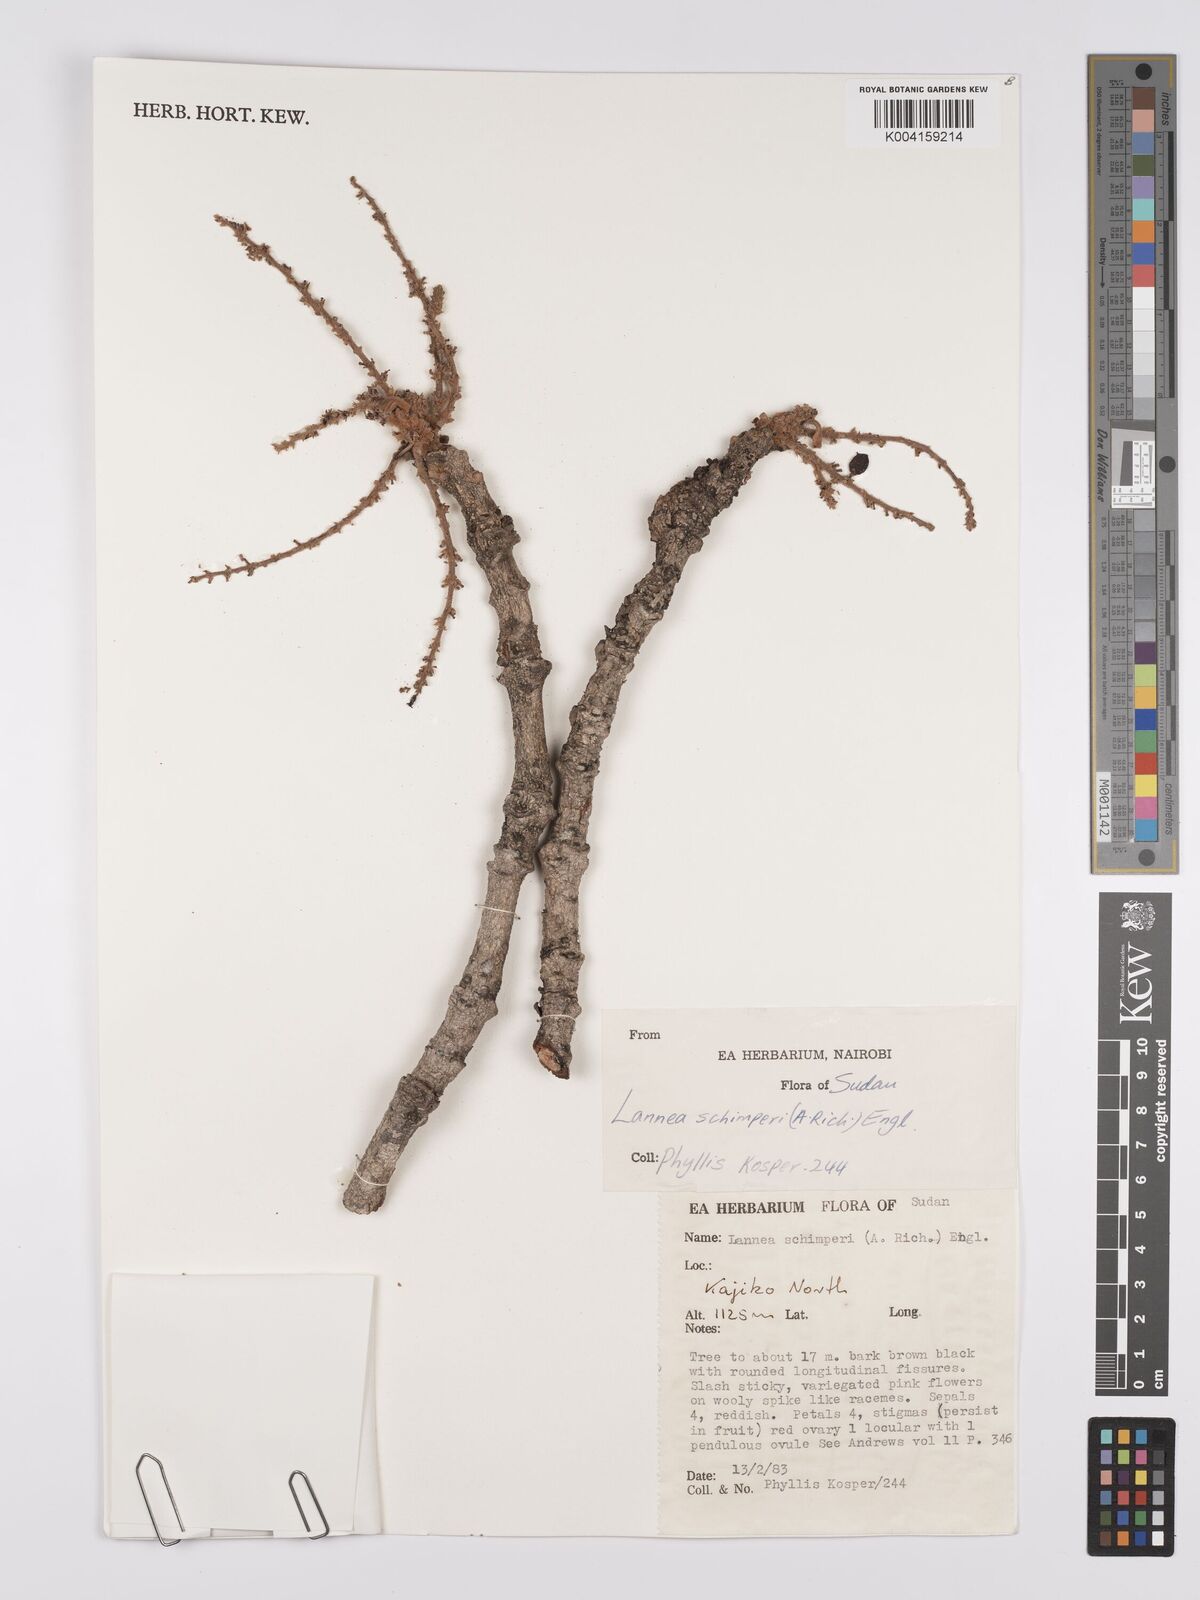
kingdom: Plantae
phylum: Tracheophyta
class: Magnoliopsida
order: Sapindales
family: Anacardiaceae
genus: Lannea
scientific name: Lannea schimperi
